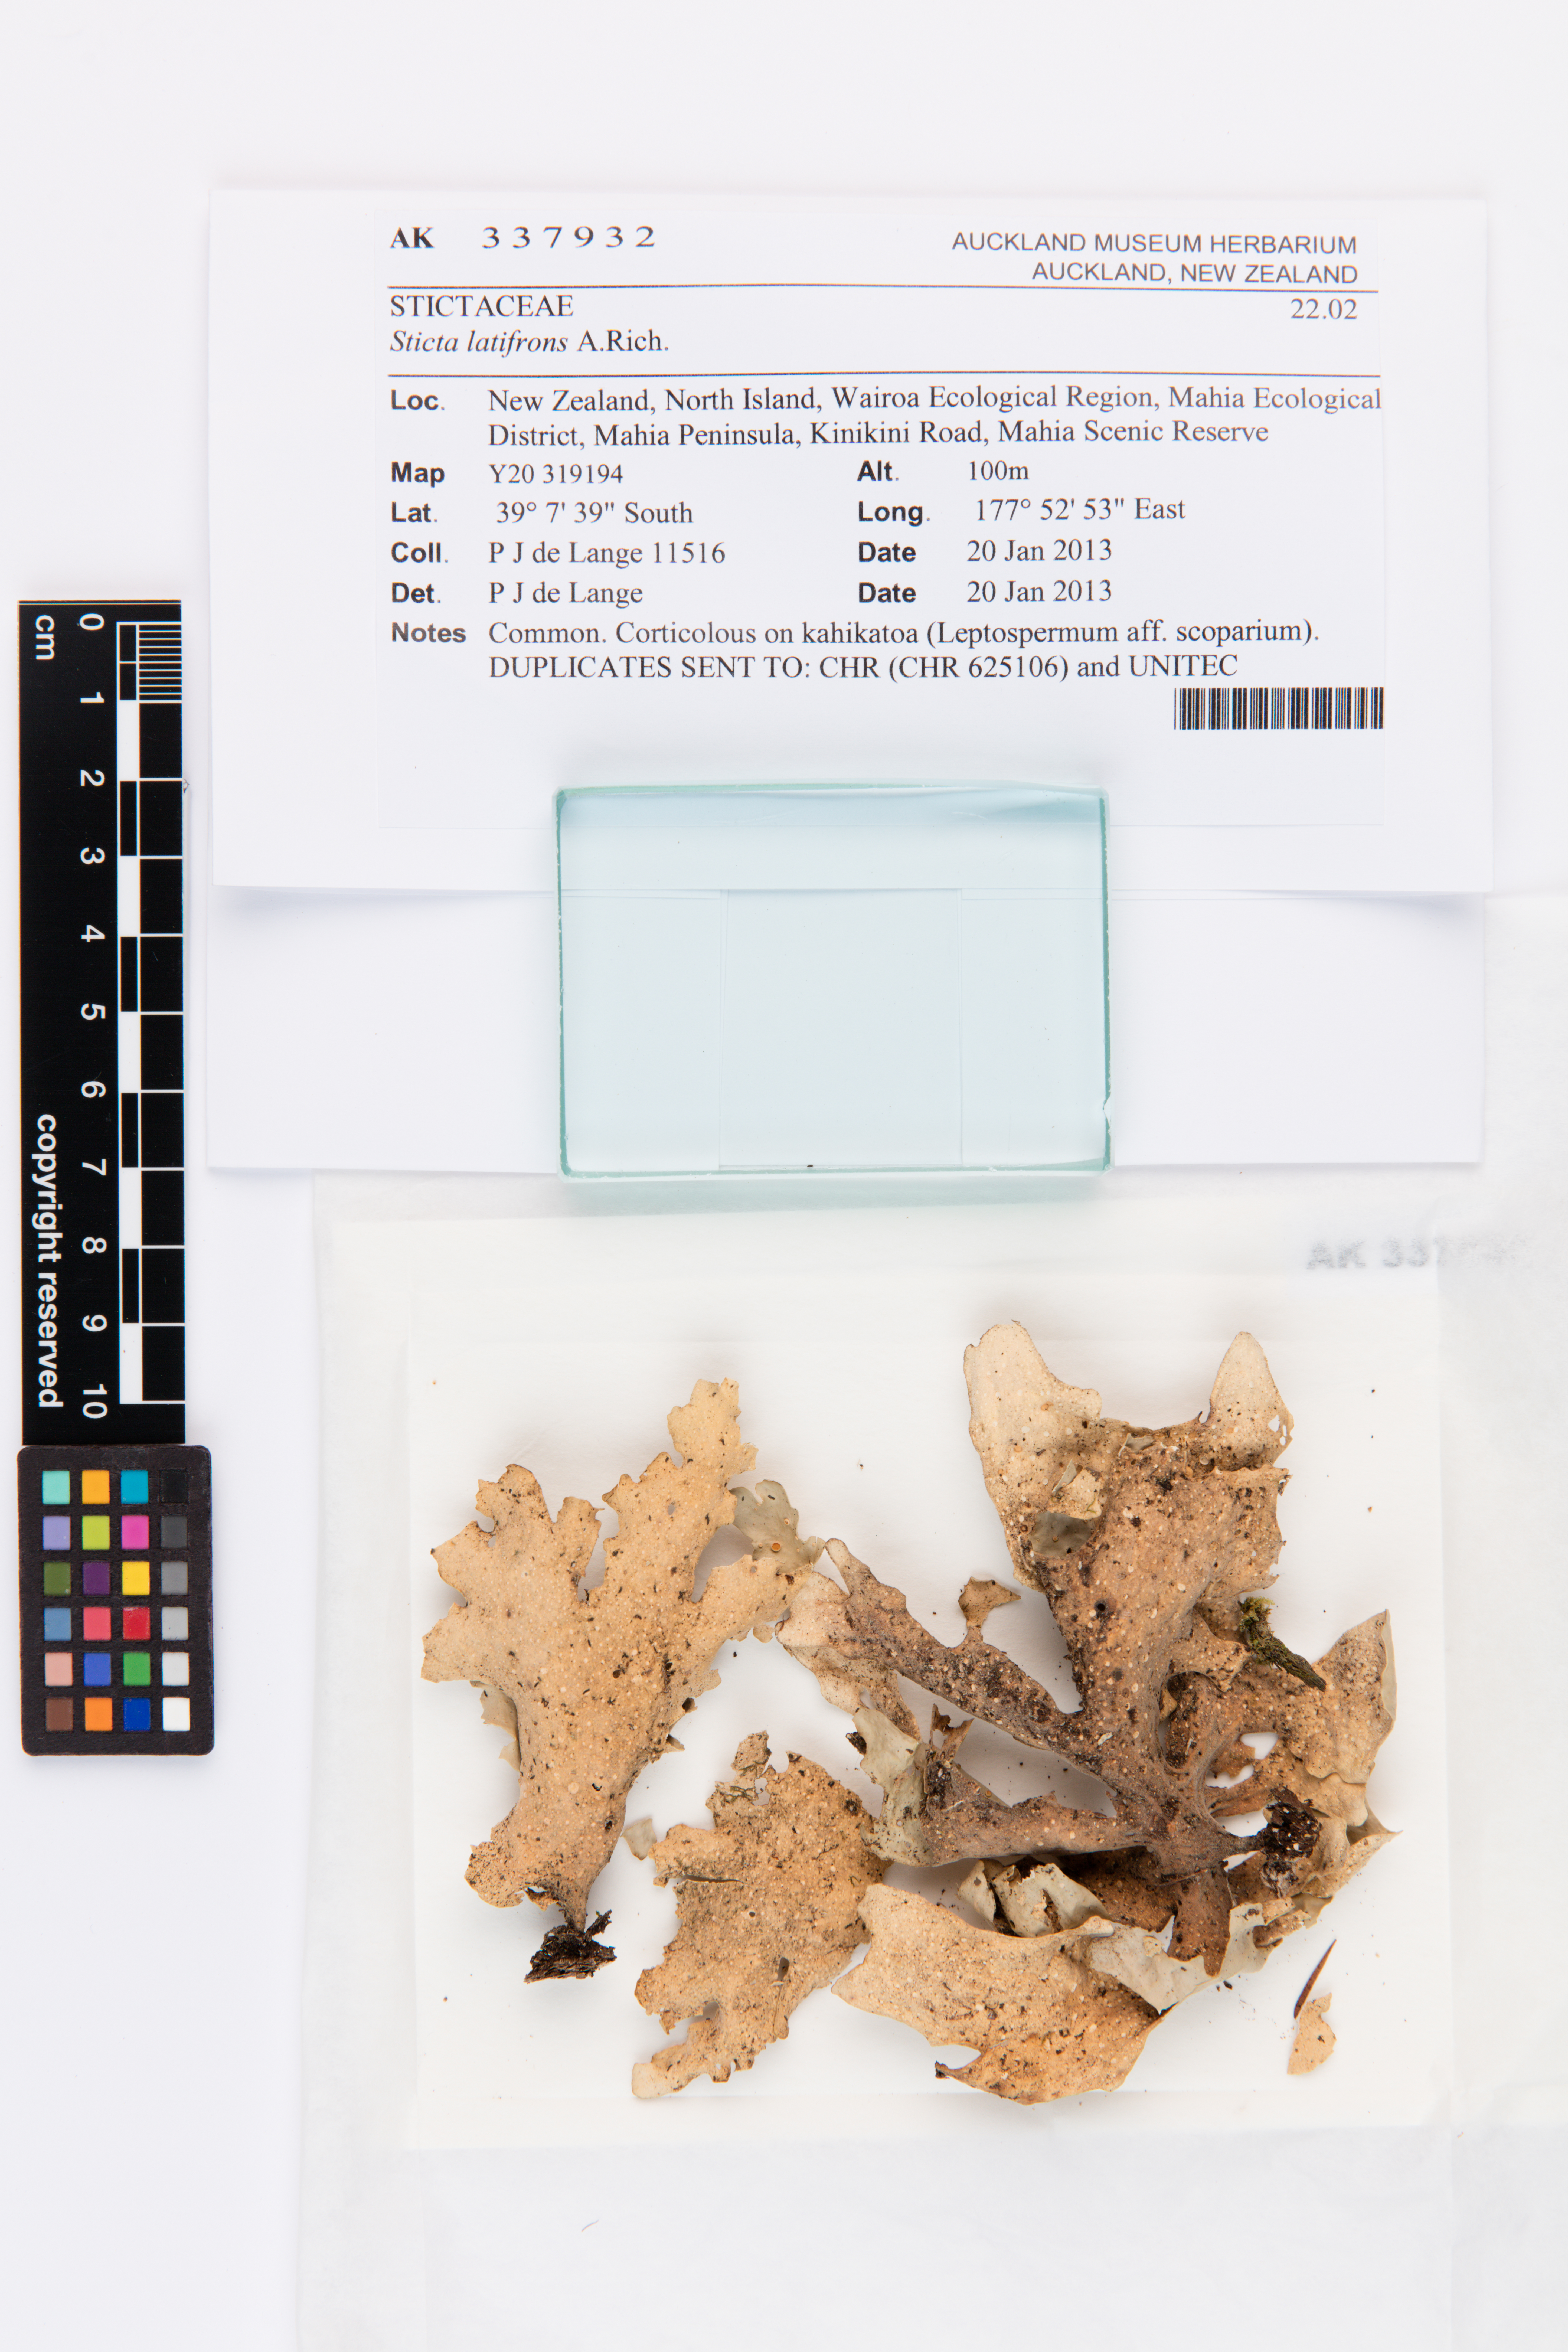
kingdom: Fungi
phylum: Ascomycota
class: Lecanoromycetes
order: Peltigerales
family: Lobariaceae
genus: Sticta
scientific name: Sticta latifrons
